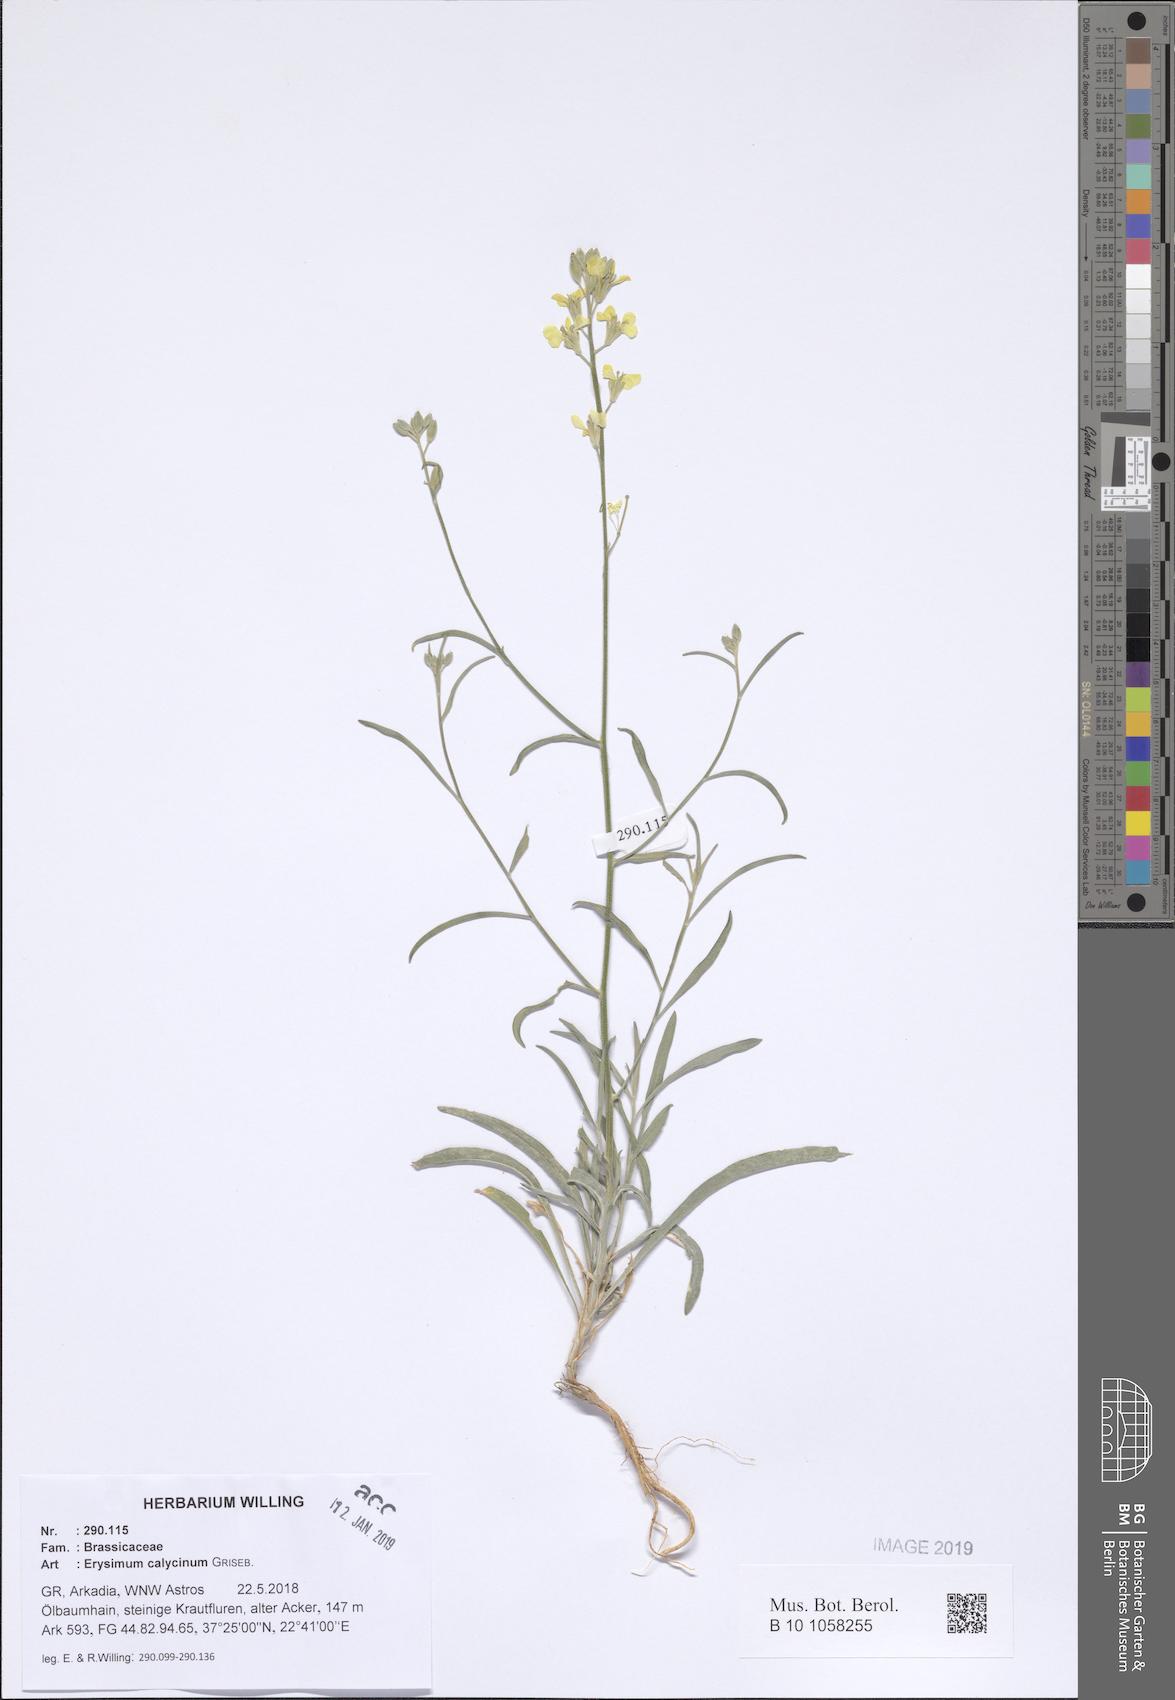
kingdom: Plantae
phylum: Tracheophyta
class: Magnoliopsida
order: Brassicales
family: Brassicaceae
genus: Erysimum
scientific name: Erysimum calycinum
